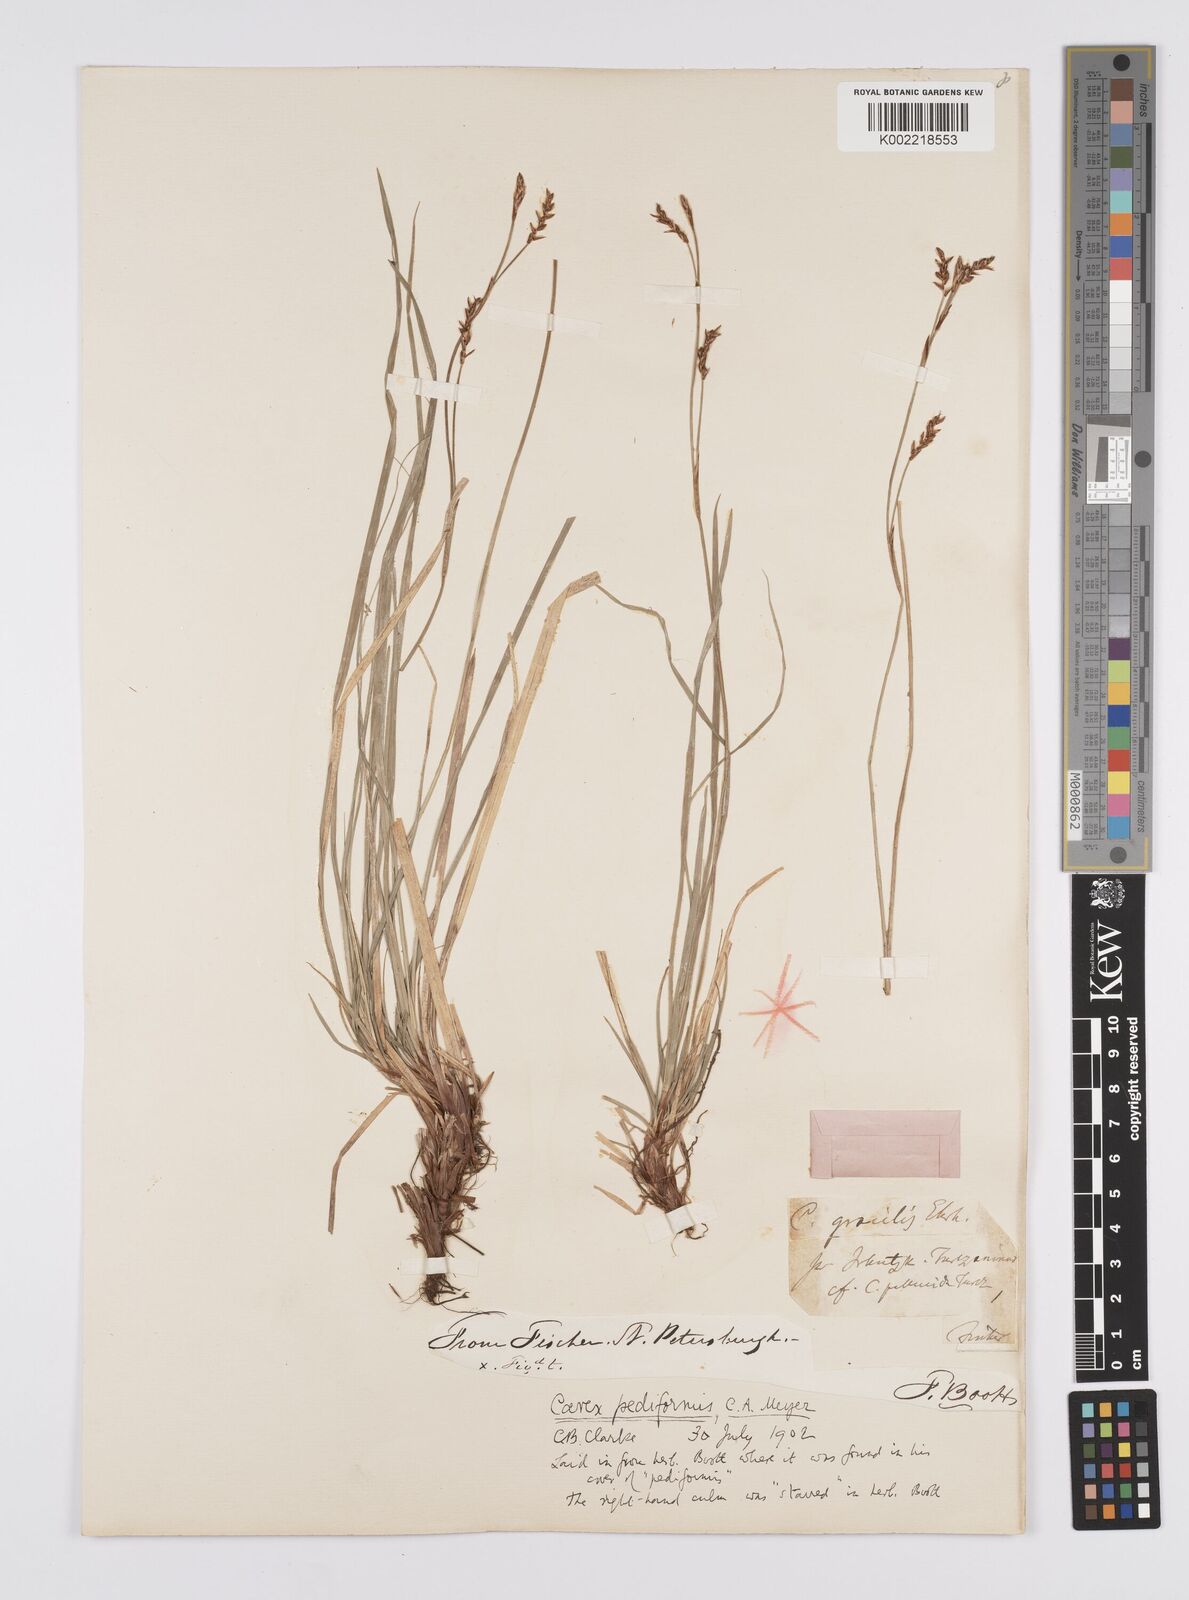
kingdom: Plantae
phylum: Tracheophyta
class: Liliopsida
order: Poales
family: Cyperaceae
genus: Carex
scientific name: Carex pediformis
